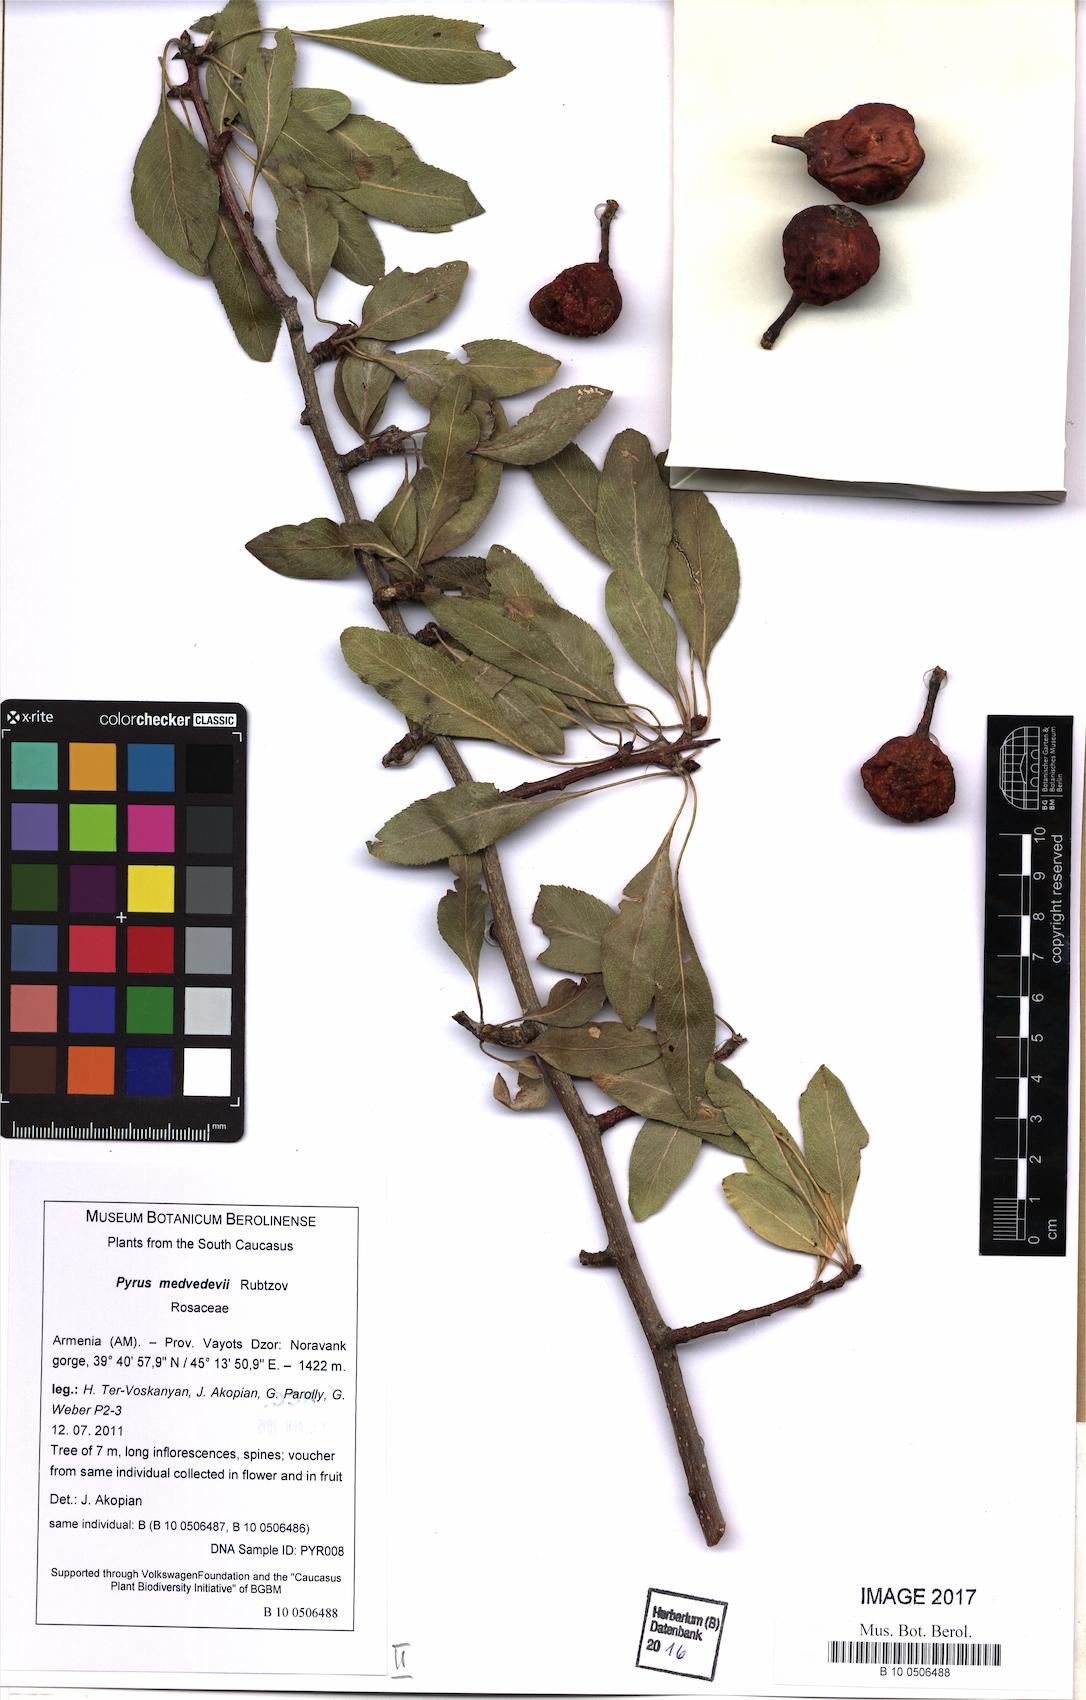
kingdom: Plantae
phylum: Tracheophyta
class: Magnoliopsida
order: Rosales
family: Rosaceae
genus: Pyrus
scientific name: Pyrus fedorovii
